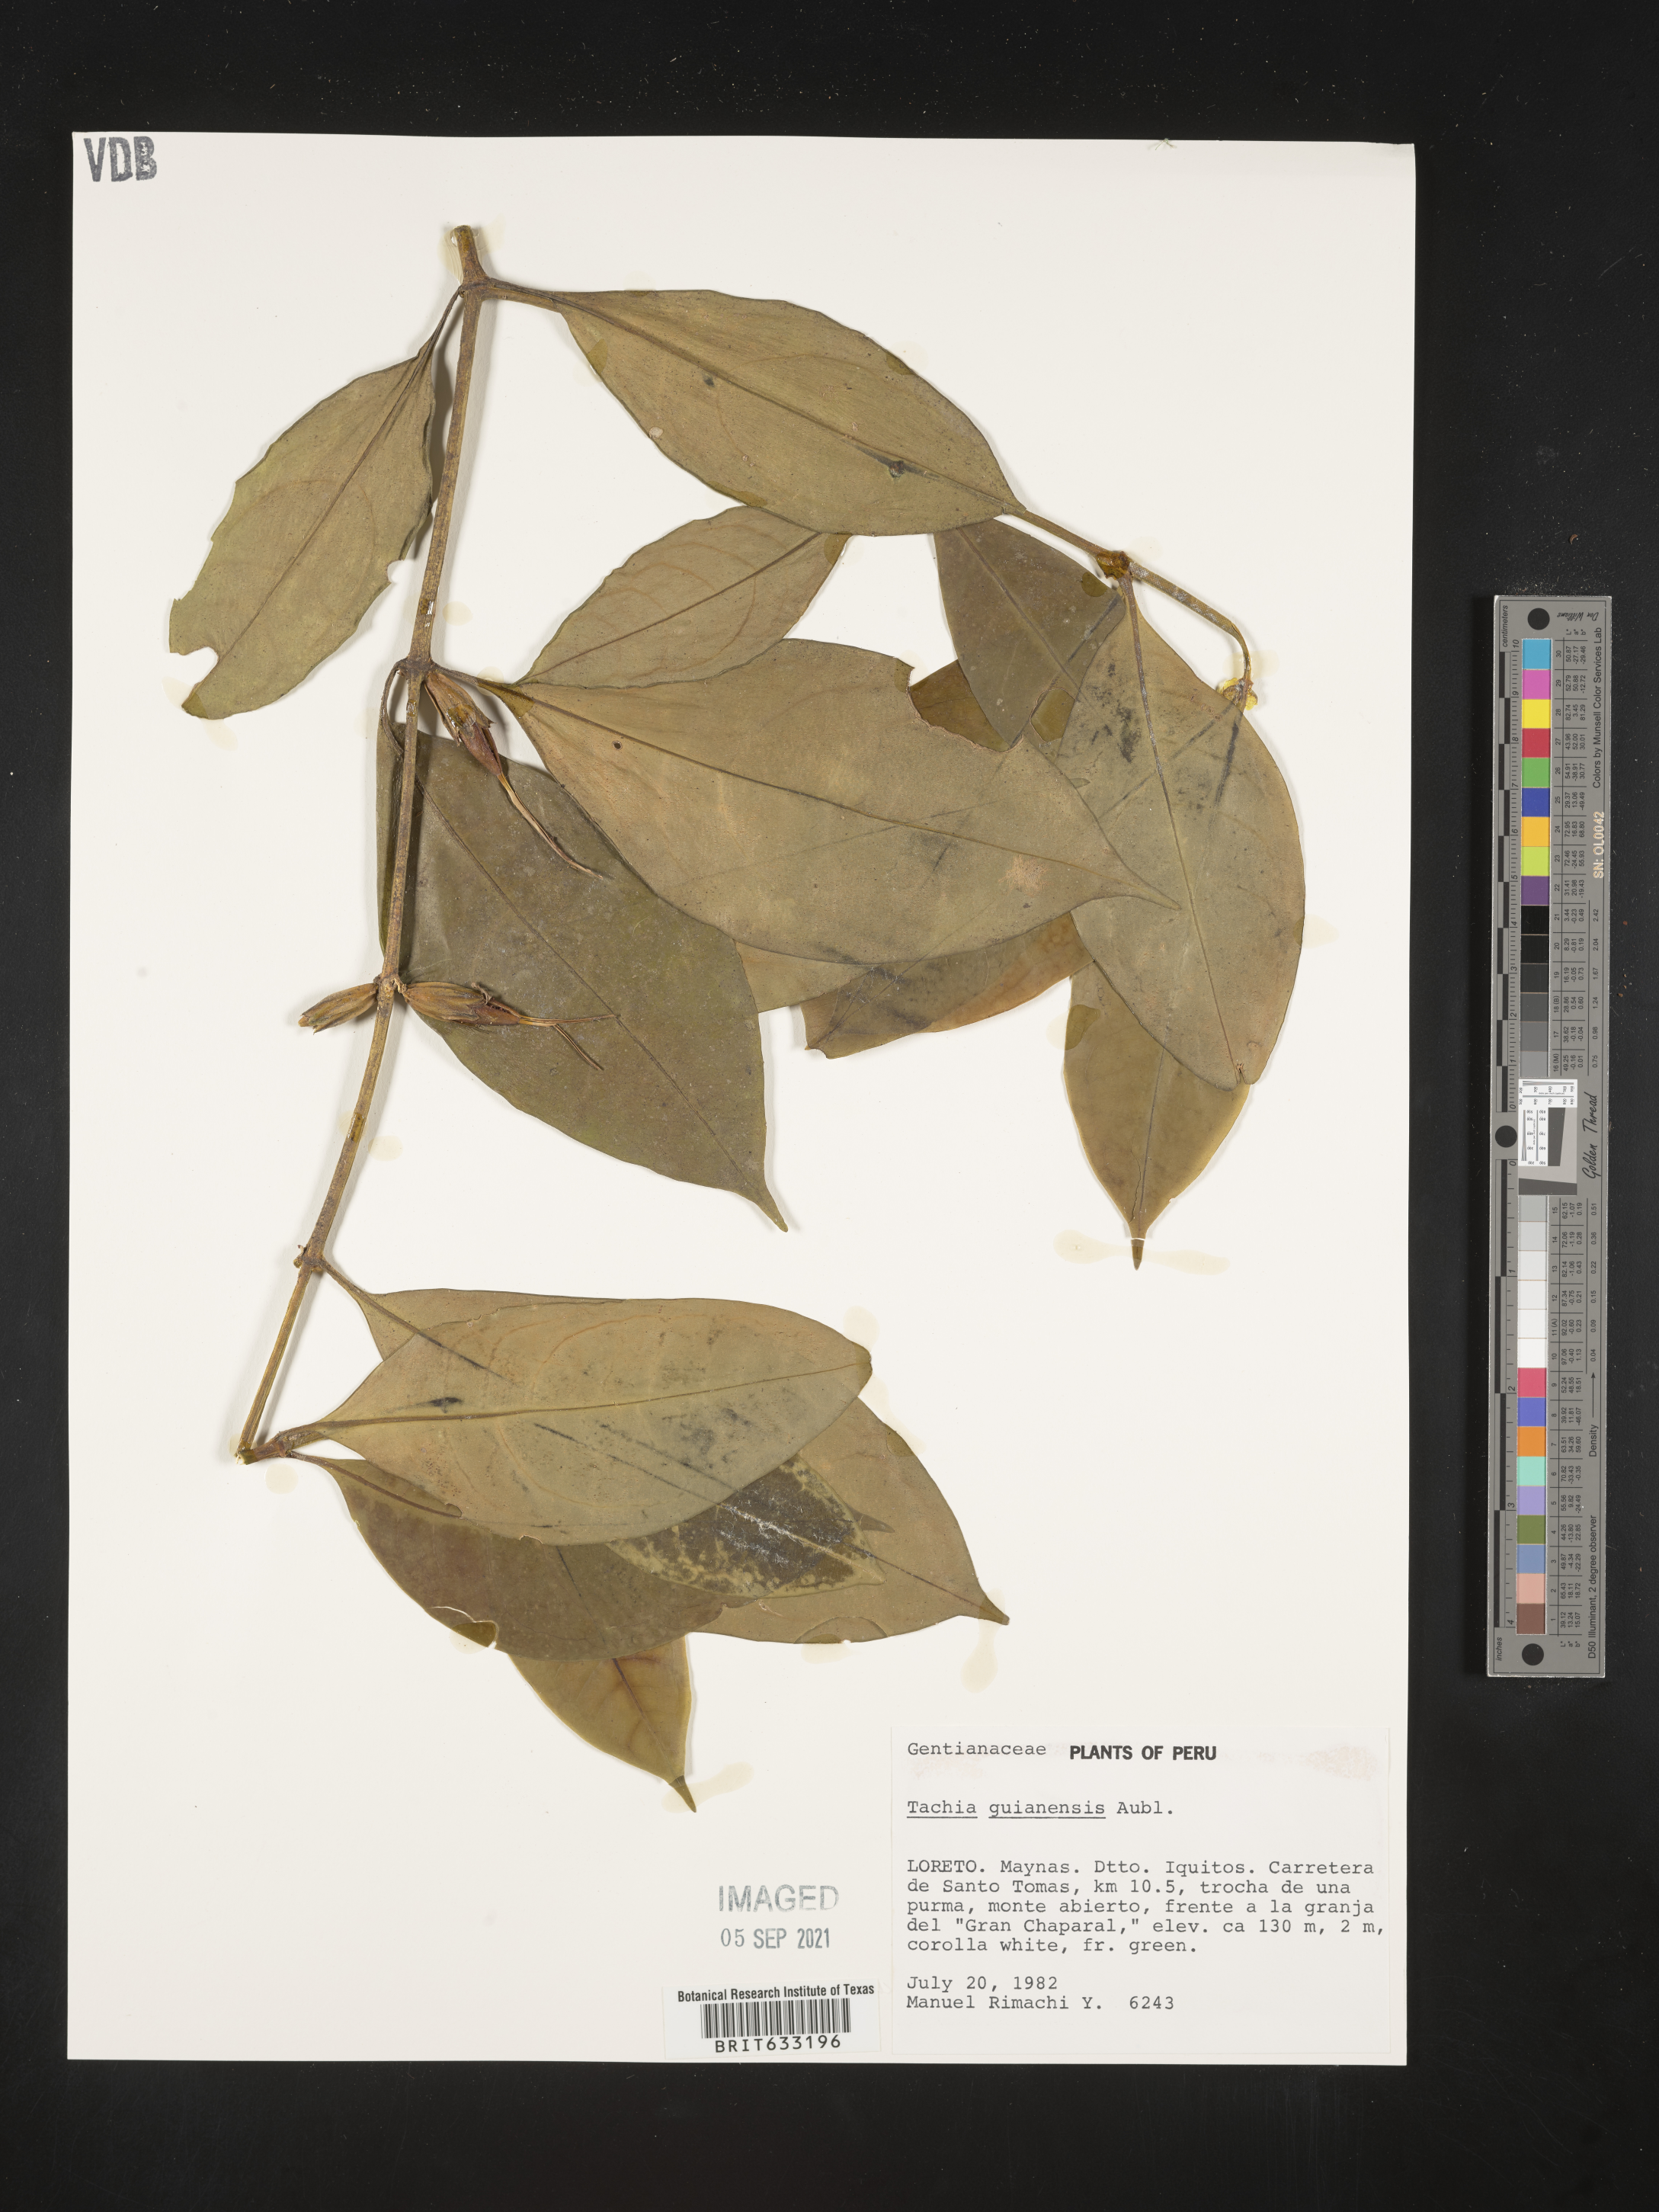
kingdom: Plantae
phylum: Tracheophyta
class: Magnoliopsida
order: Gentianales
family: Gentianaceae
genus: Tachia
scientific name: Tachia
